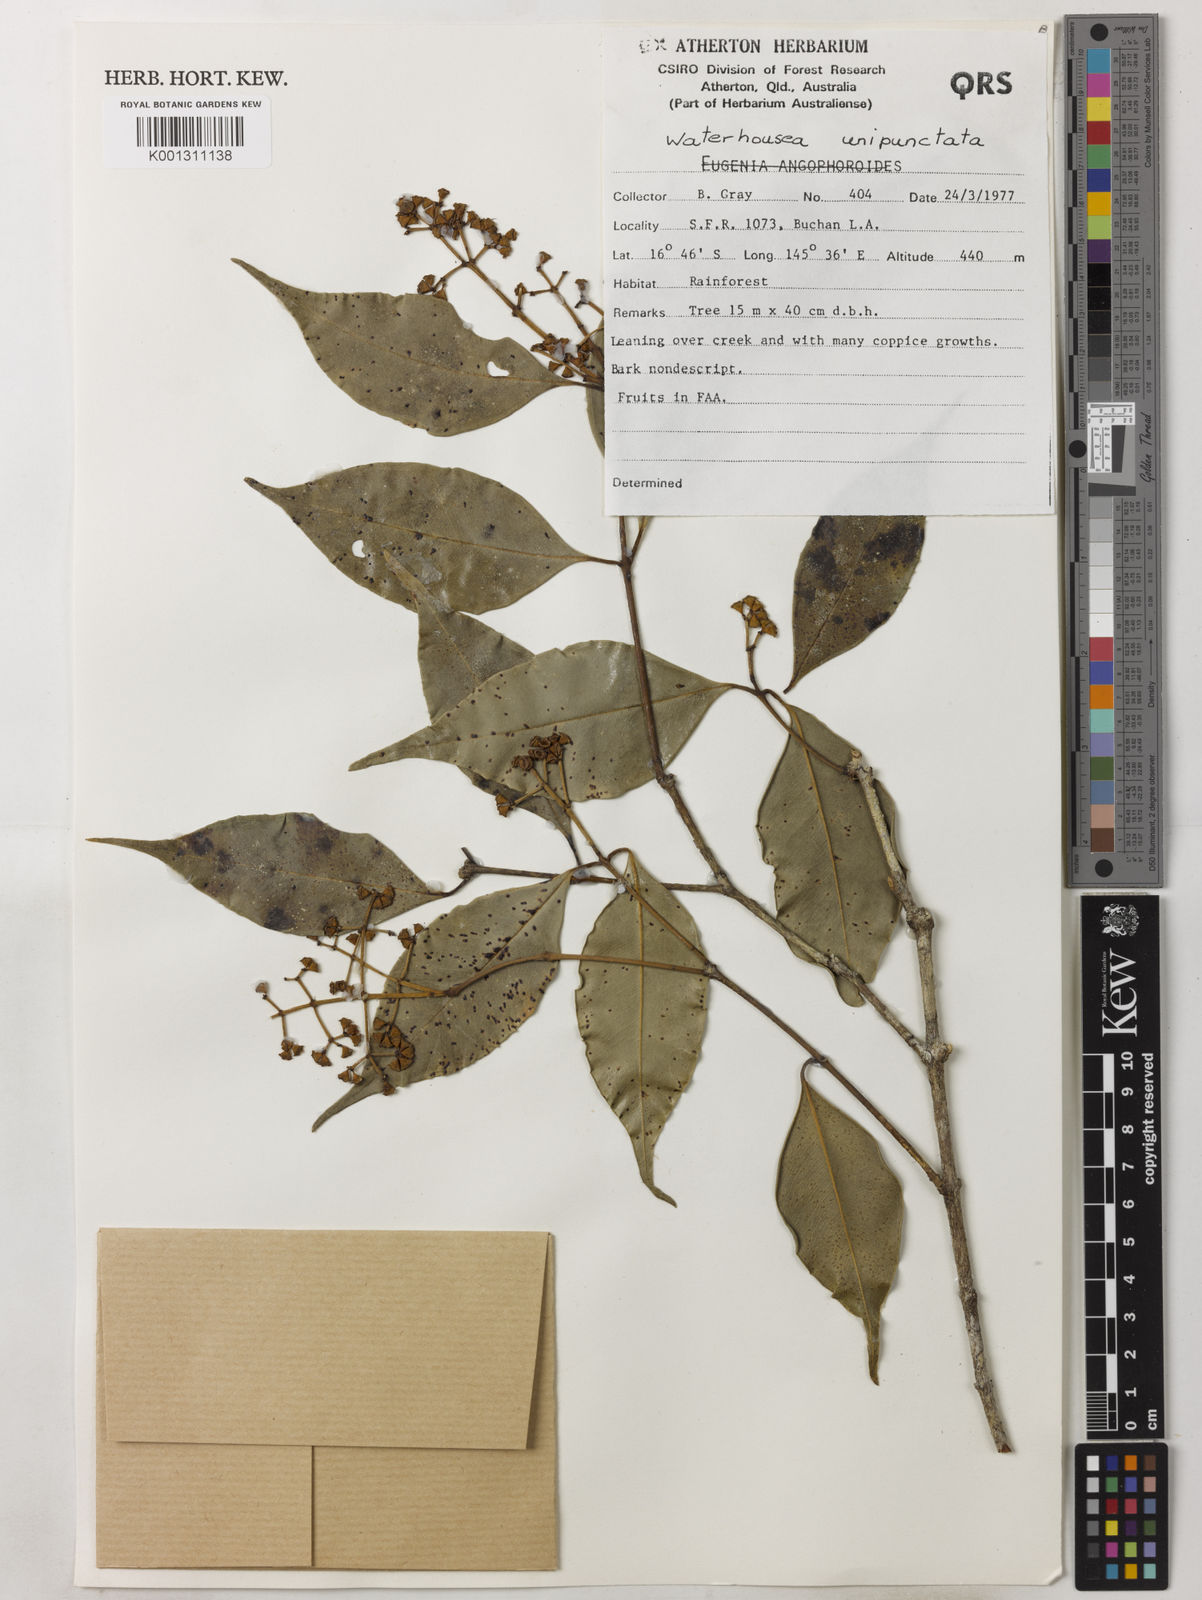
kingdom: Plantae
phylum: Tracheophyta
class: Magnoliopsida
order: Myrtales
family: Myrtaceae
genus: Syzygium
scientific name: Syzygium unipunctatum
